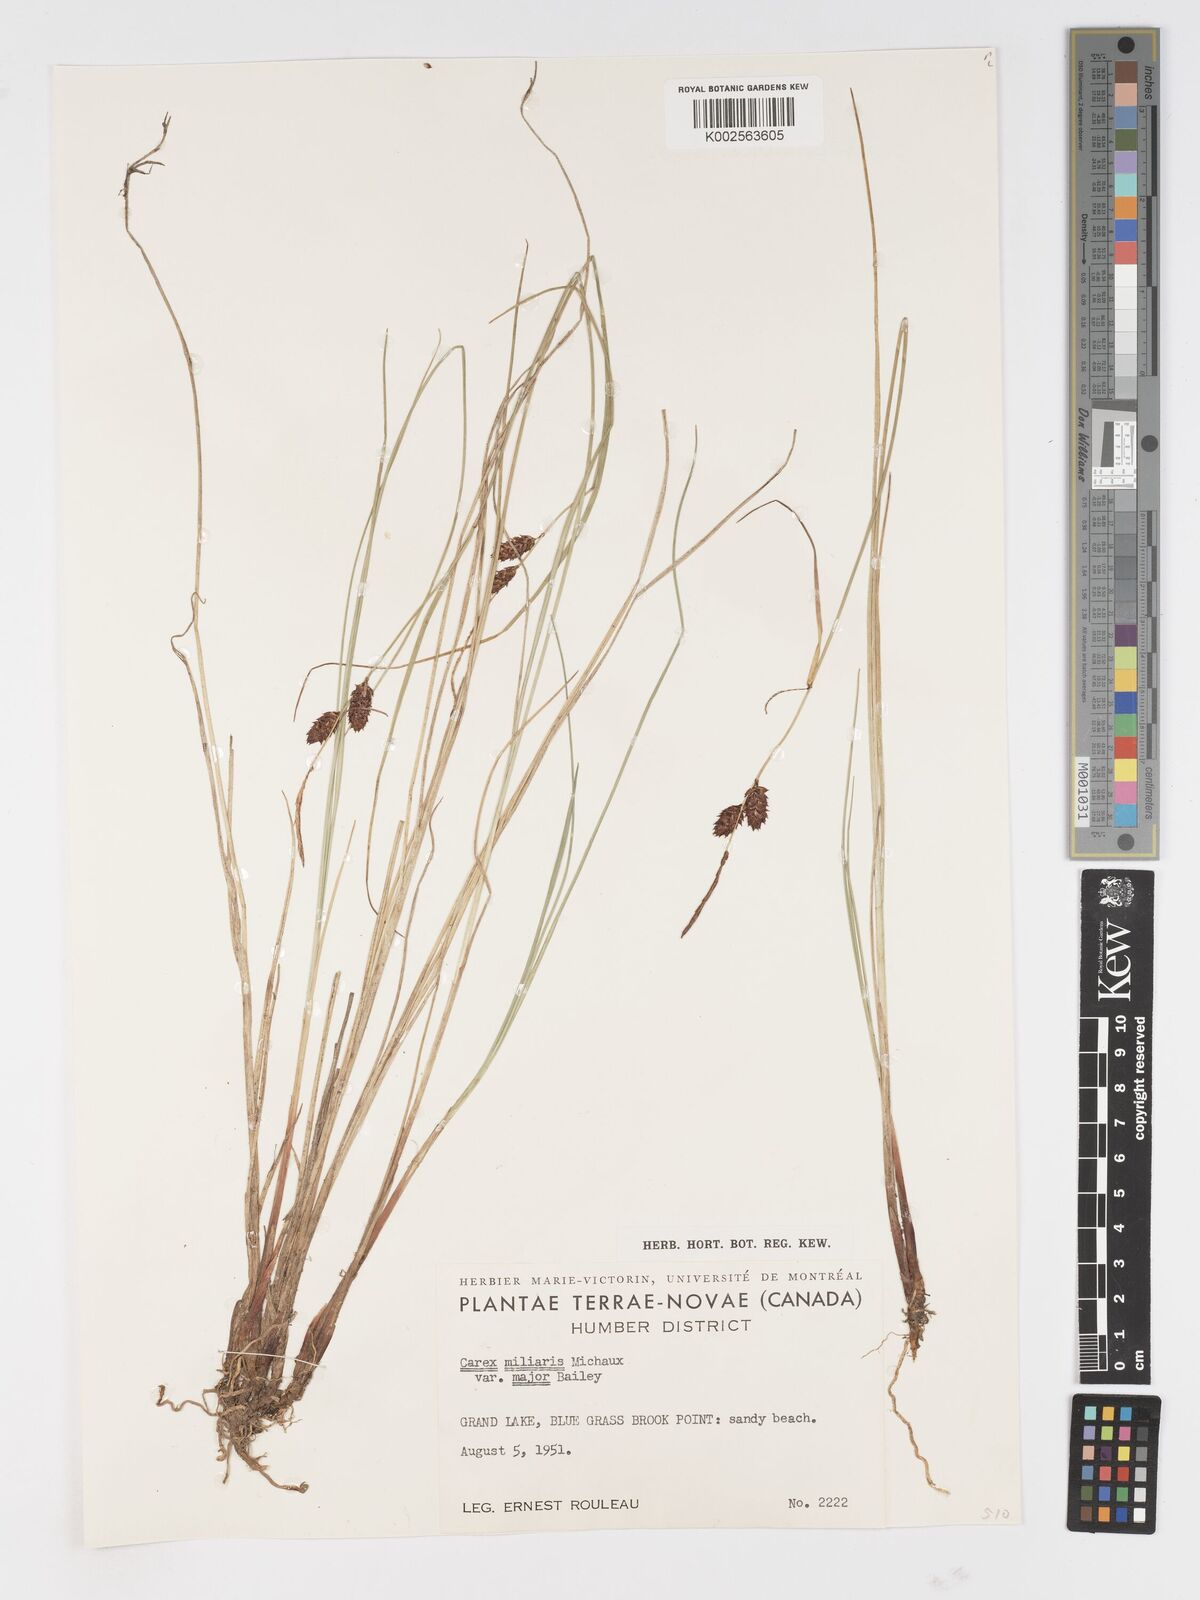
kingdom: Plantae
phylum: Tracheophyta
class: Liliopsida
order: Poales
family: Cyperaceae
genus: Carex
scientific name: Carex miliaris
